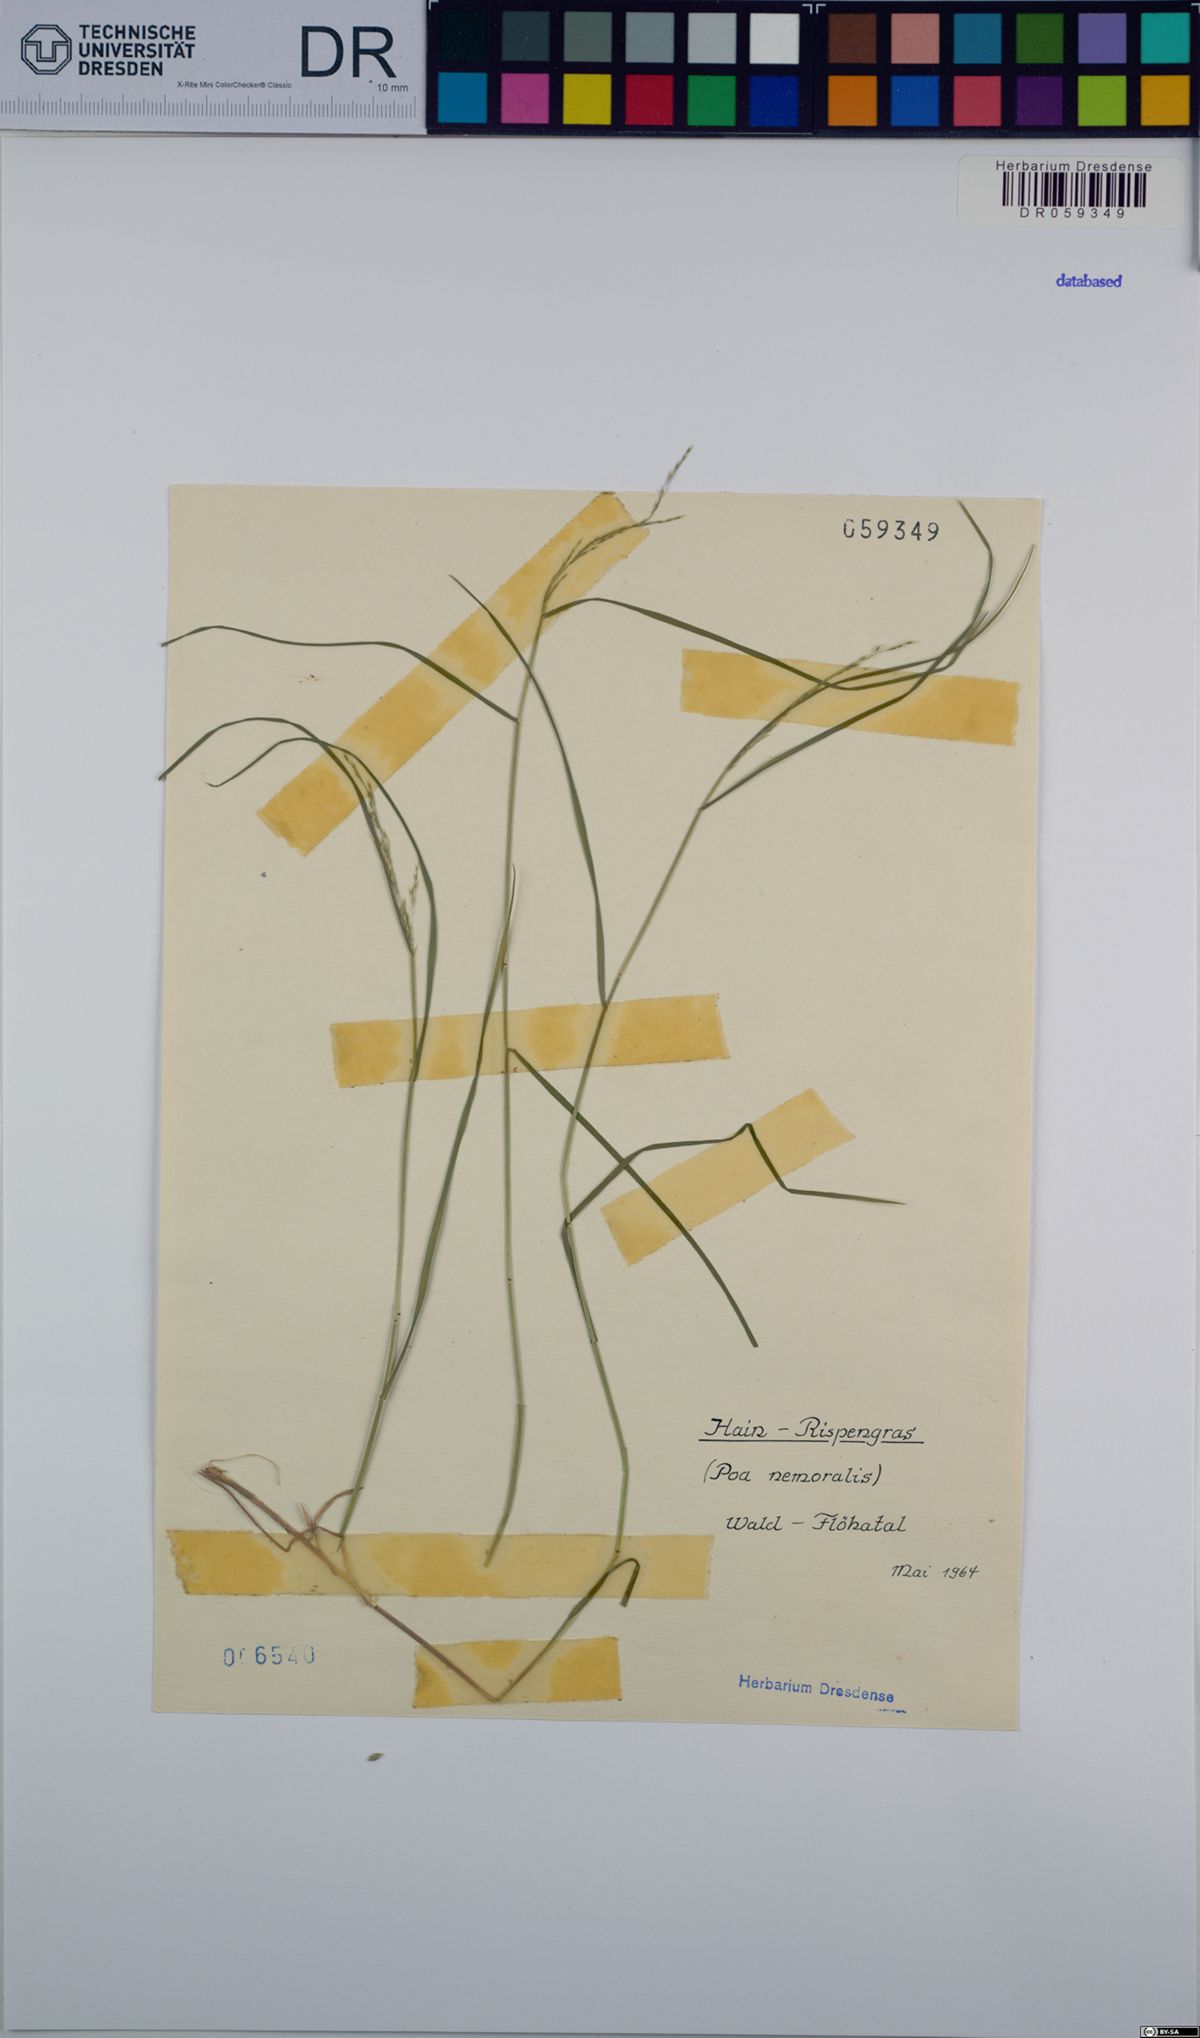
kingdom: Plantae
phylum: Tracheophyta
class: Liliopsida
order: Poales
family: Poaceae
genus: Poa
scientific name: Poa nemoralis
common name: Wood bluegrass
